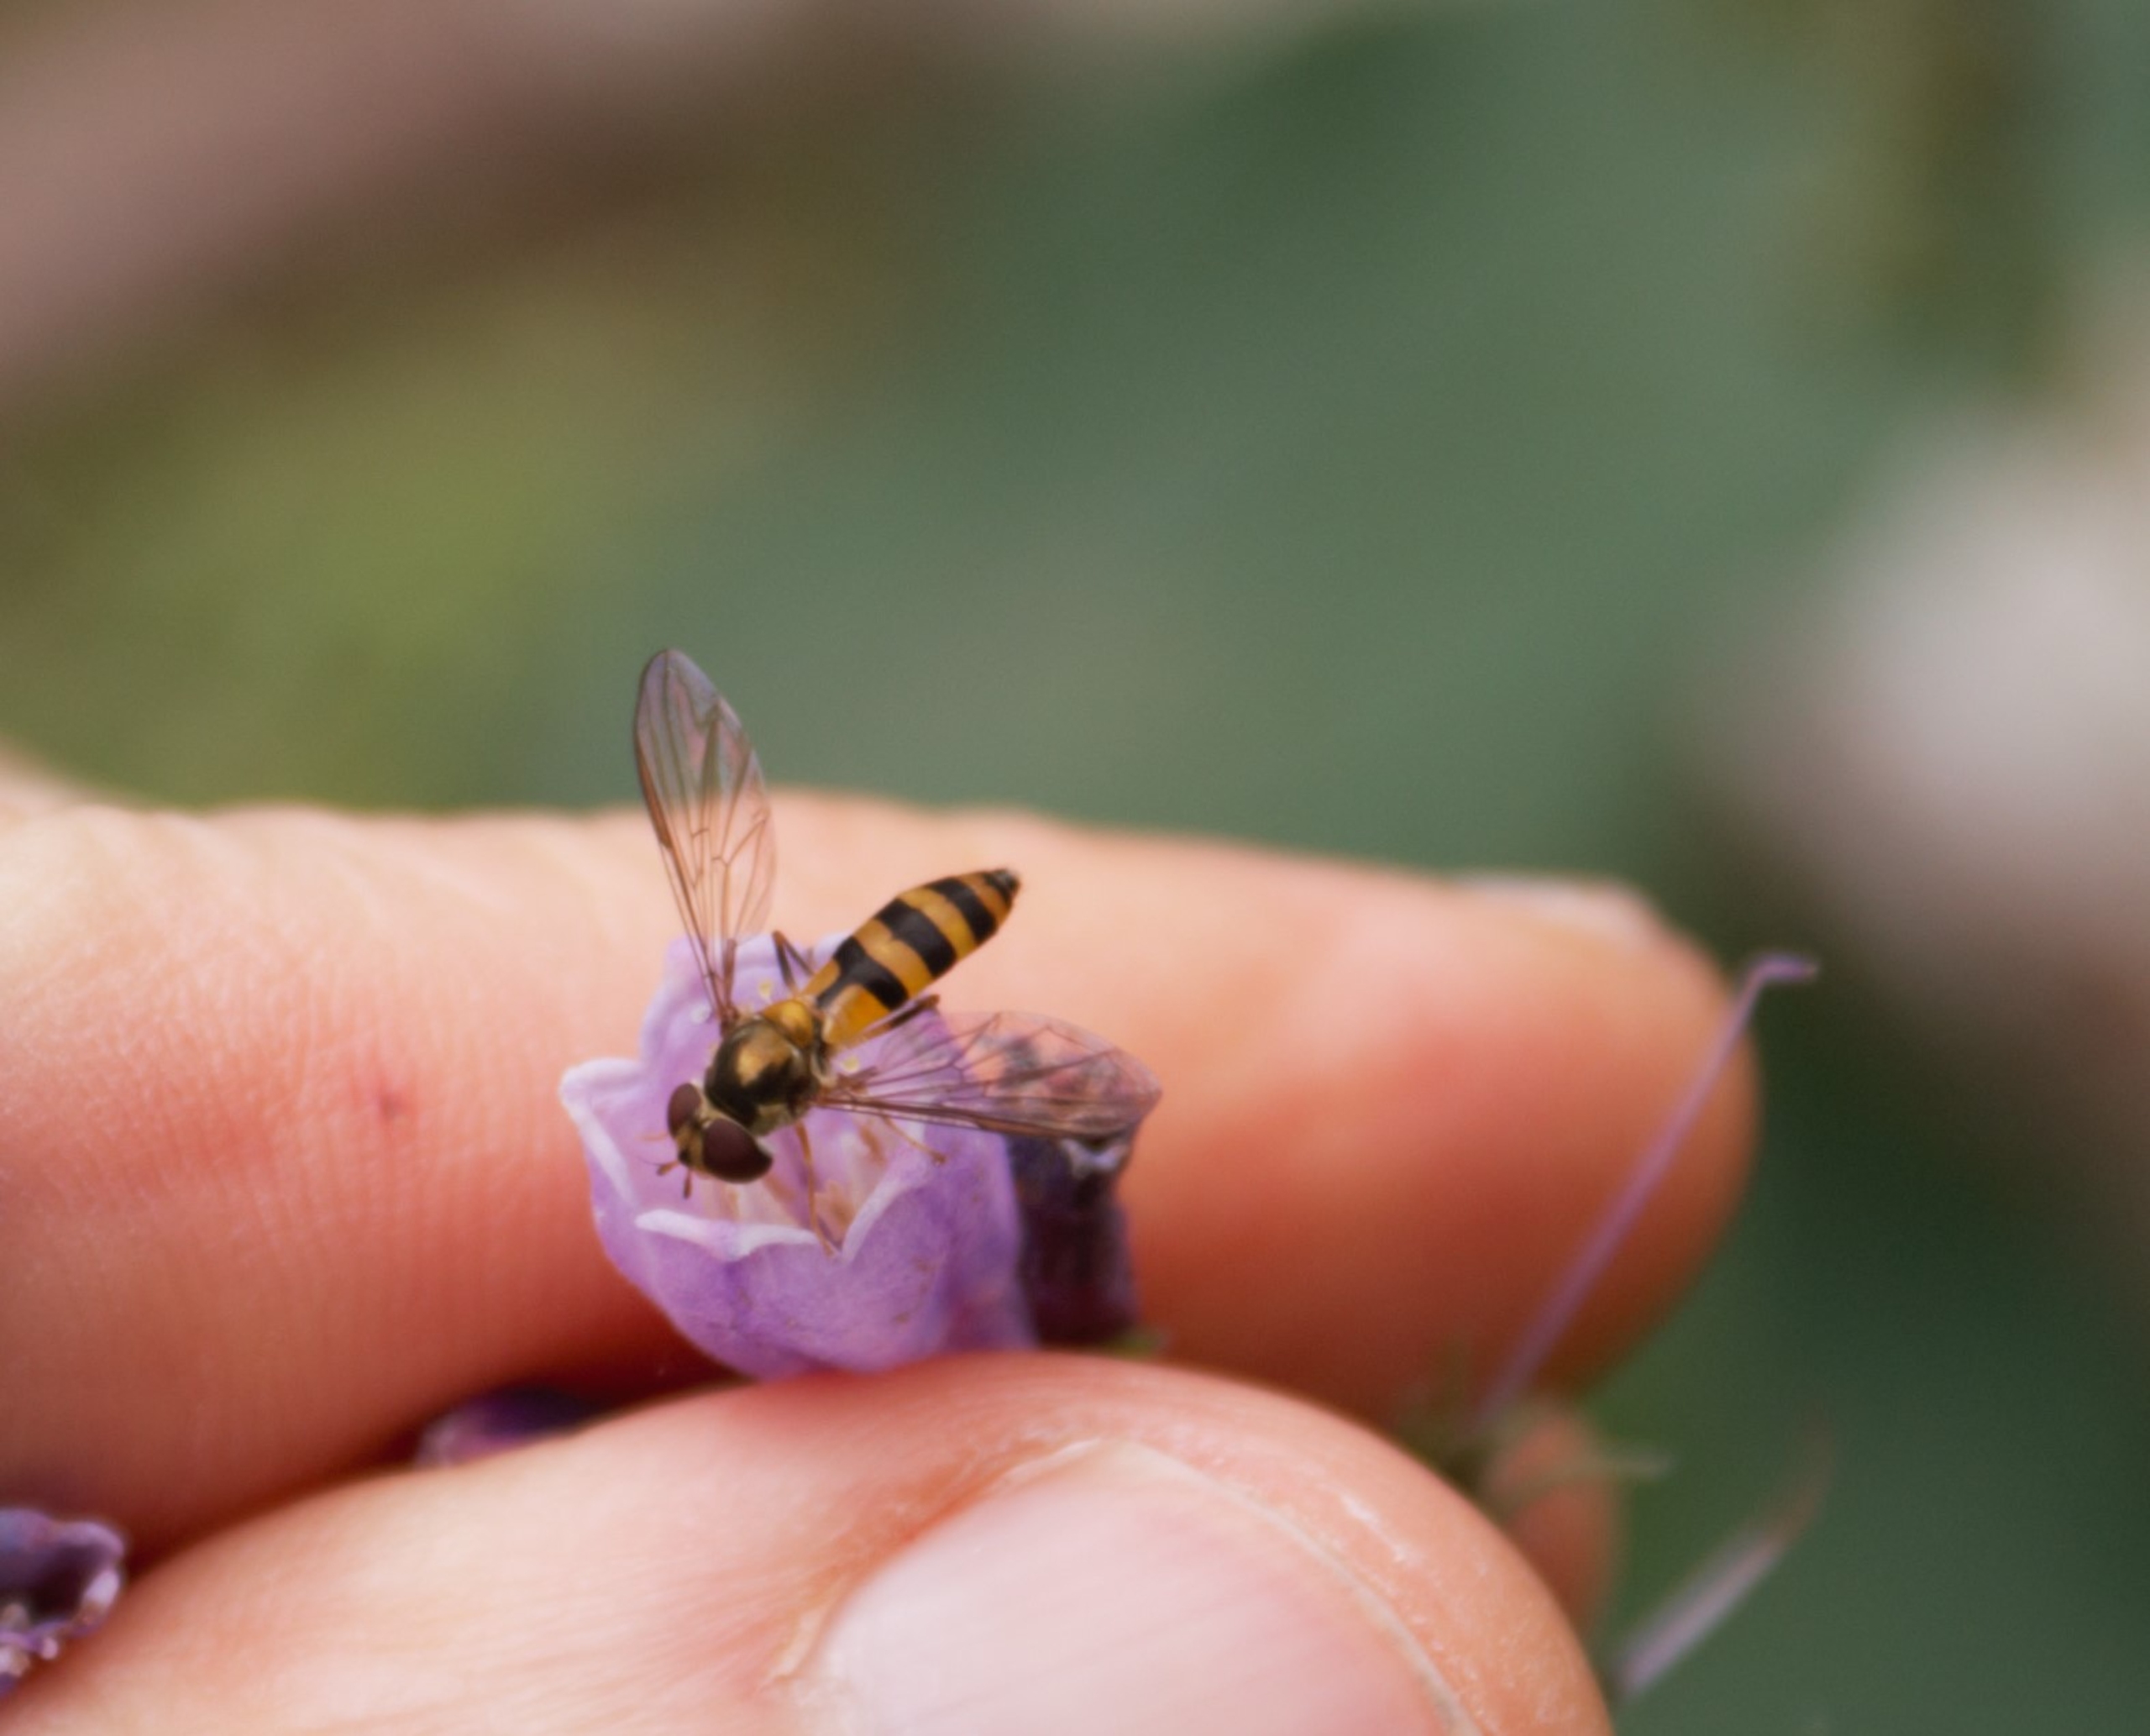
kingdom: Animalia
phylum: Arthropoda
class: Insecta
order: Diptera
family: Syrphidae
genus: Meliscaeva
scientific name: Meliscaeva cinctella
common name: Bælte-svirreflue
